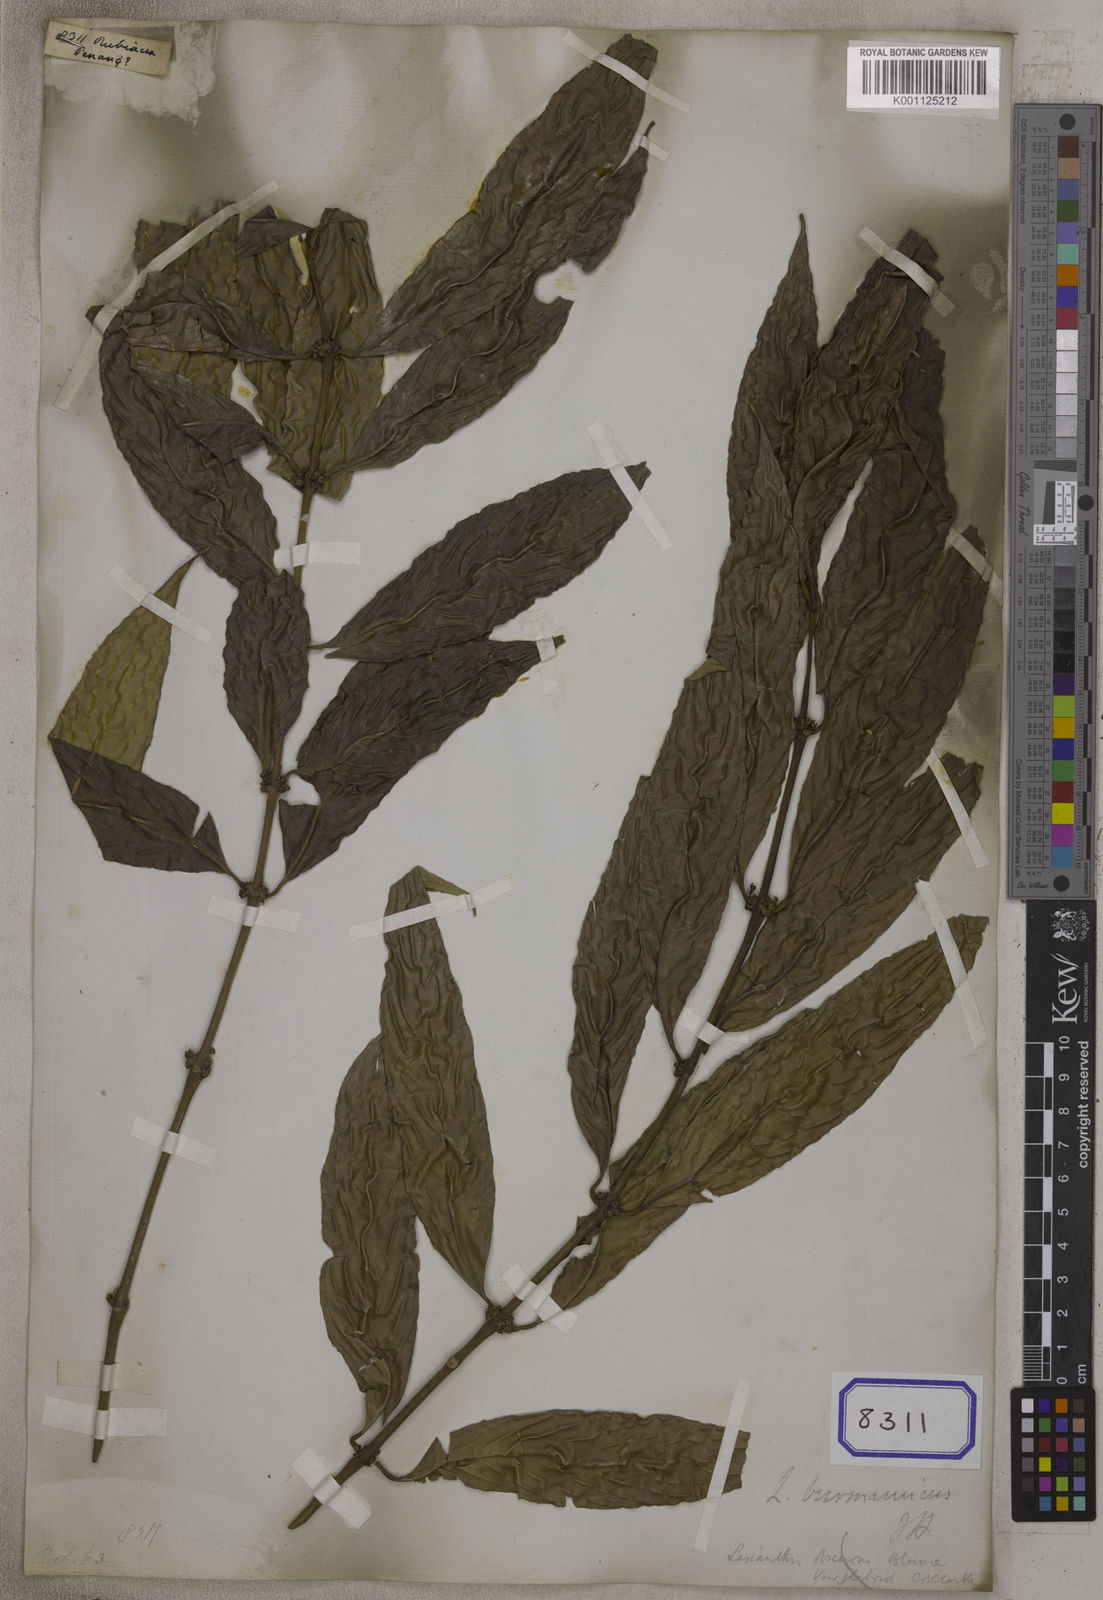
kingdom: Plantae
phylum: Tracheophyta
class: Magnoliopsida
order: Gentianales
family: Rubiaceae
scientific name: Rubiaceae
